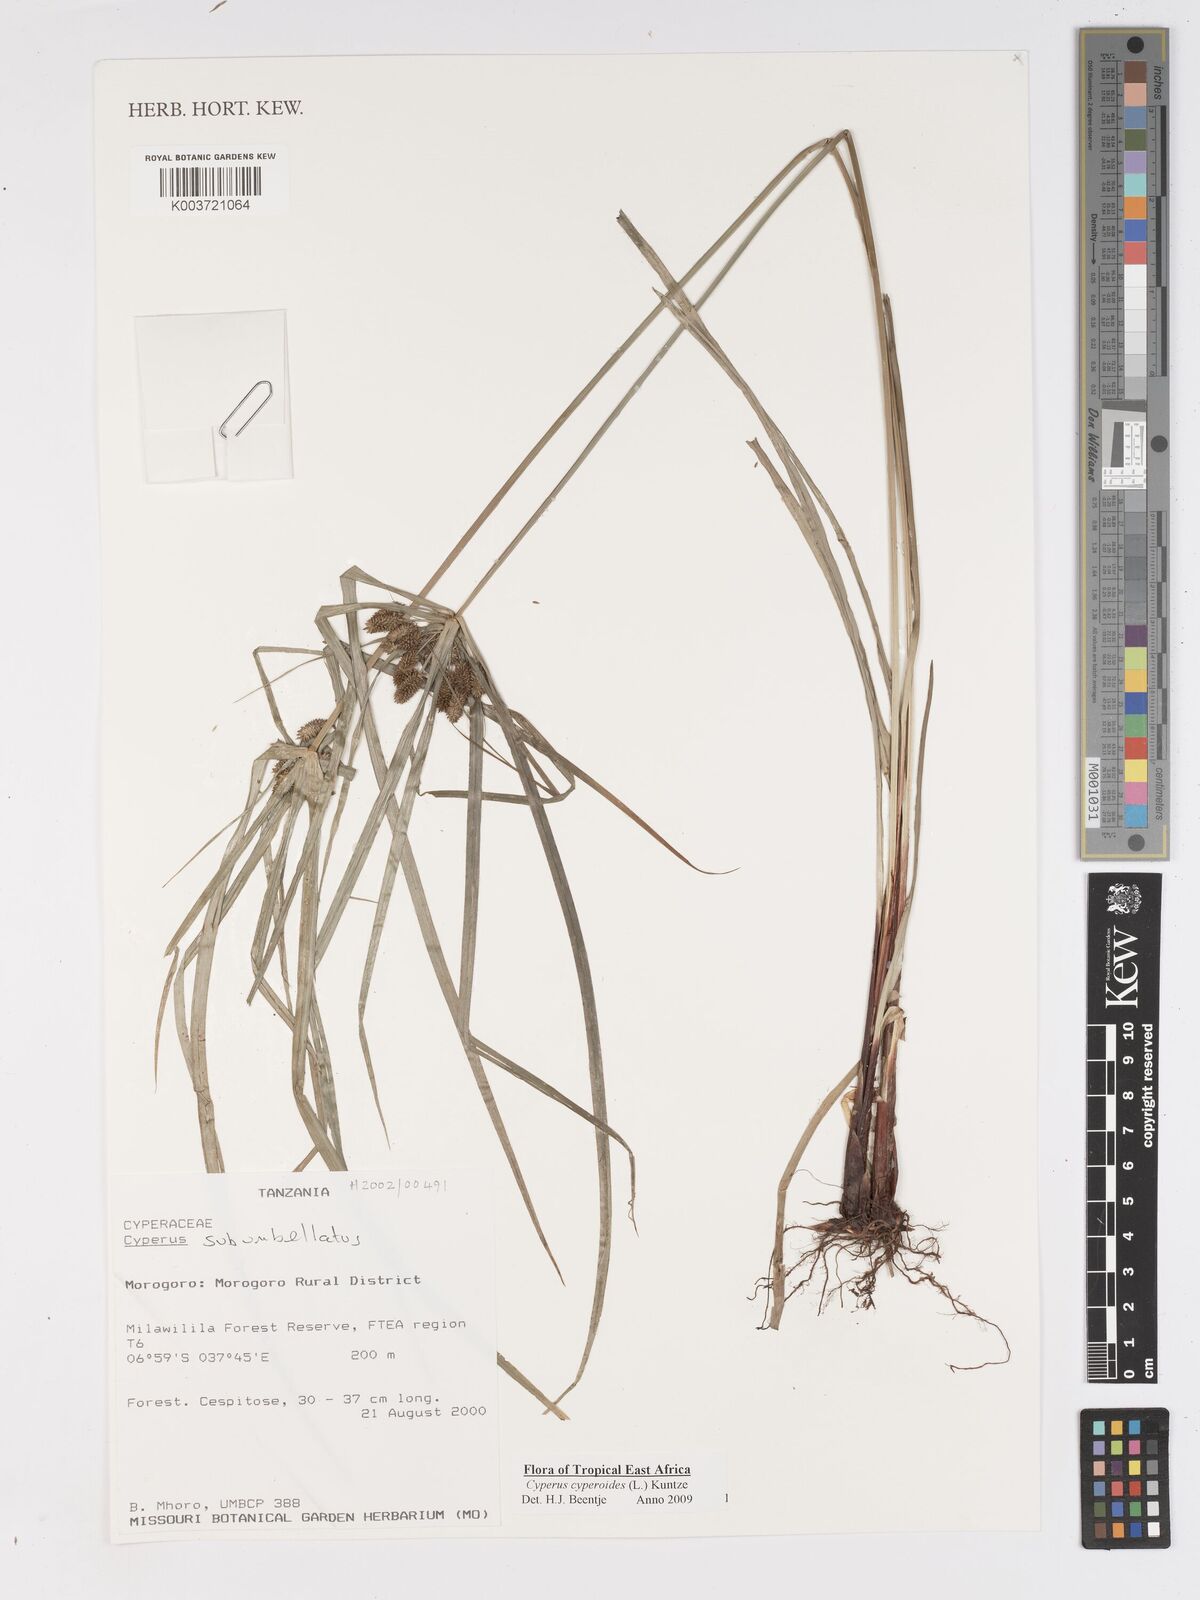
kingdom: Plantae
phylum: Tracheophyta
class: Liliopsida
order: Poales
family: Cyperaceae
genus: Cyperus
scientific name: Cyperus cyperoides
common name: Pacific island flat sedge
